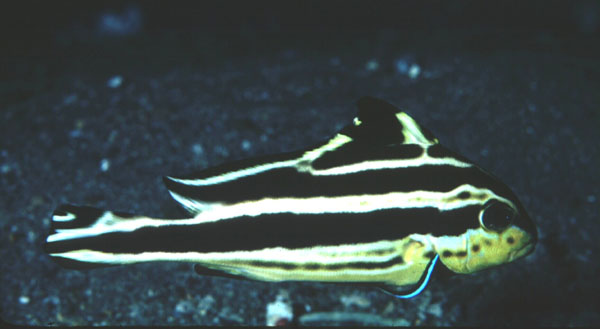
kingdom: Animalia
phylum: Chordata
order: Perciformes
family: Haemulidae
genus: Diagramma
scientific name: Diagramma pictum
